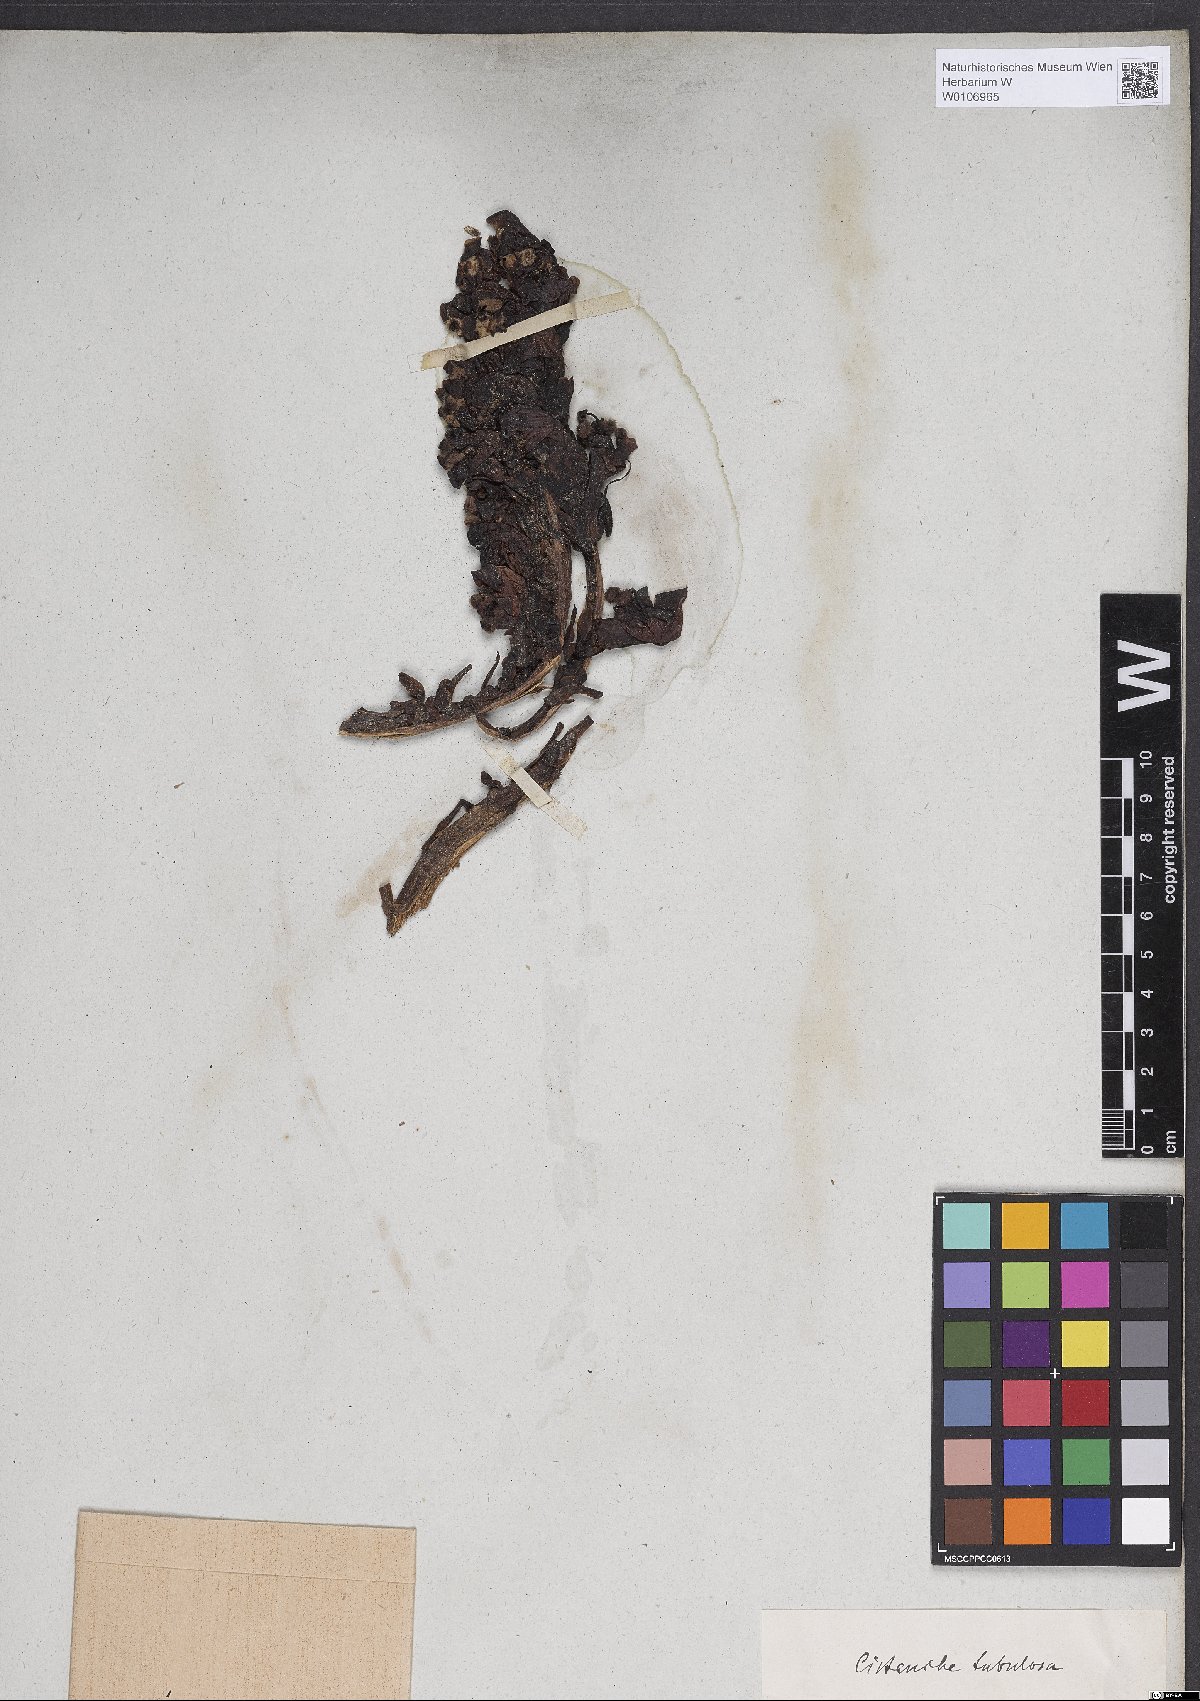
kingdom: Plantae
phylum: Tracheophyta
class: Magnoliopsida
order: Lamiales
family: Orobanchaceae
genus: Cistanche
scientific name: Cistanche tubulosa
